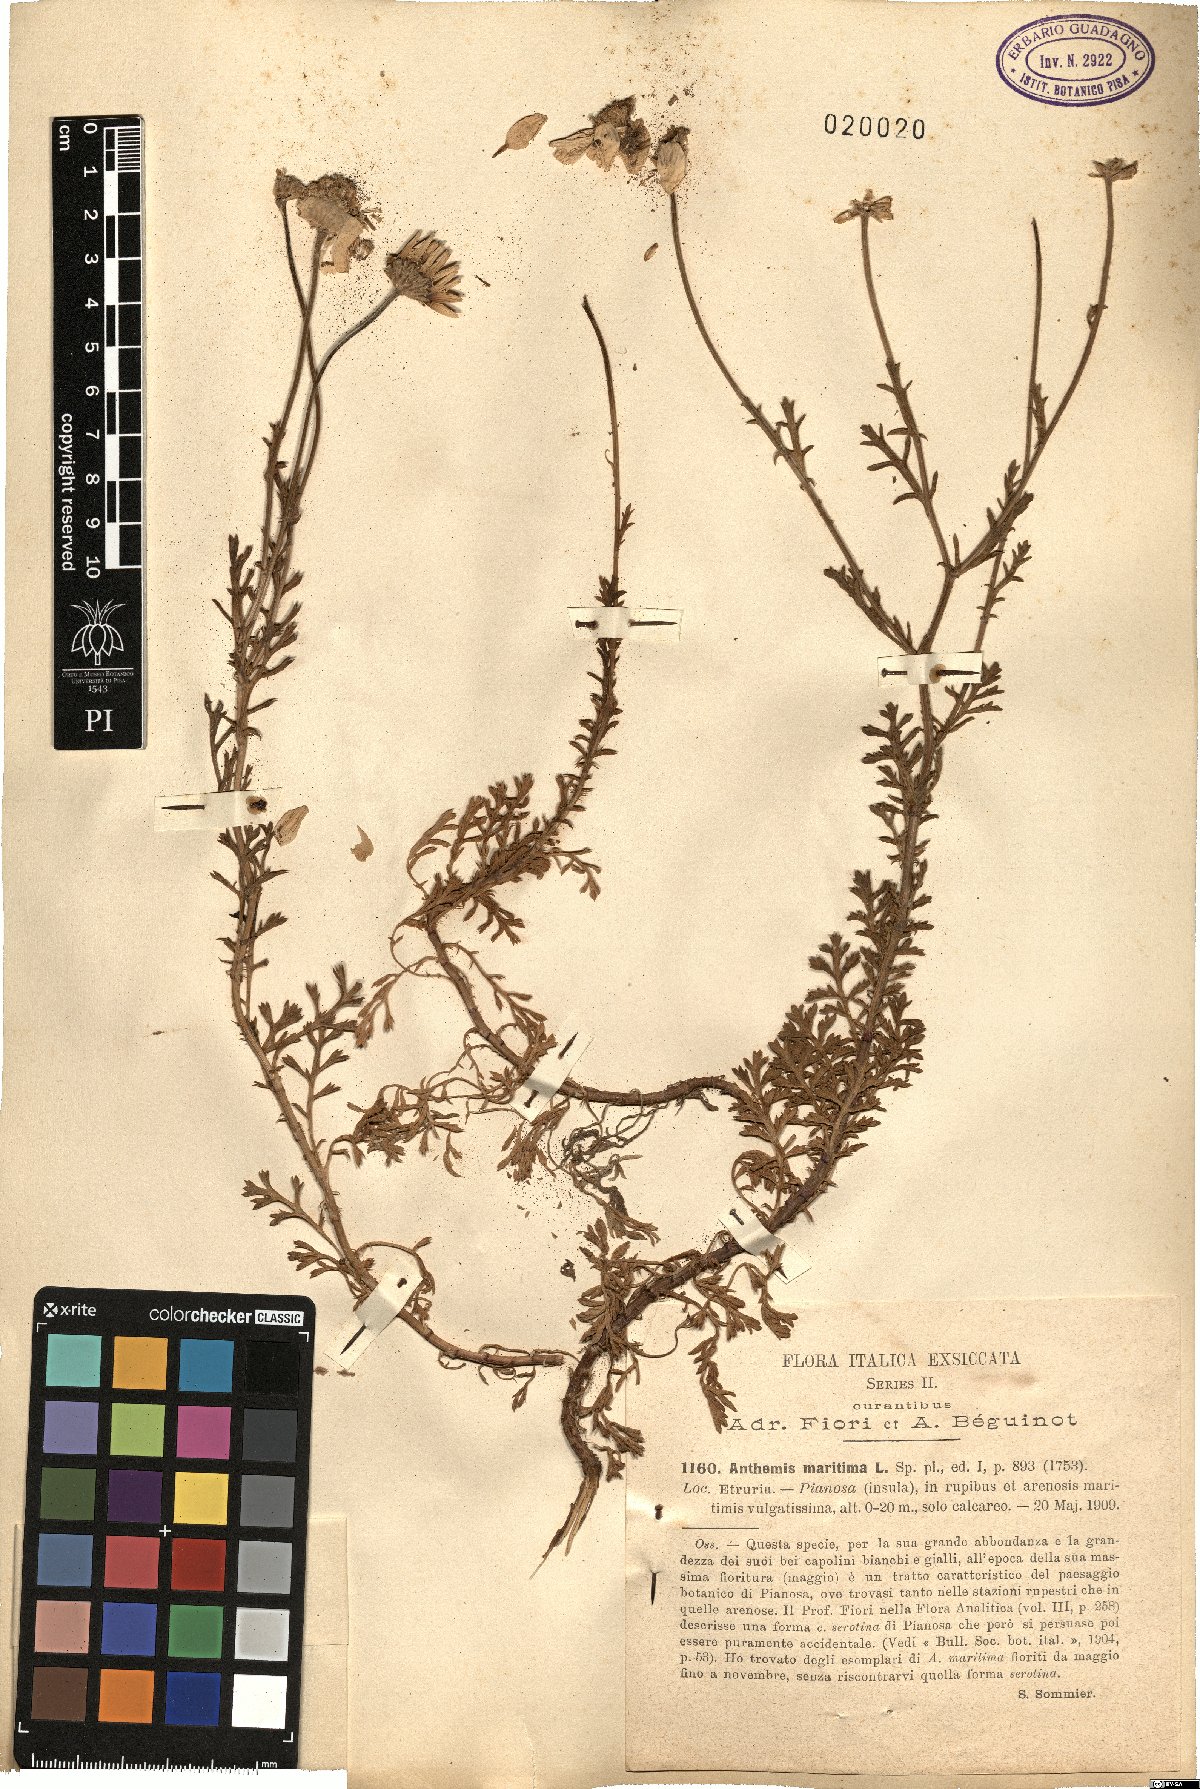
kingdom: Plantae
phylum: Tracheophyta
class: Magnoliopsida
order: Asterales
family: Asteraceae
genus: Anthemis
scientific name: Anthemis maritima
